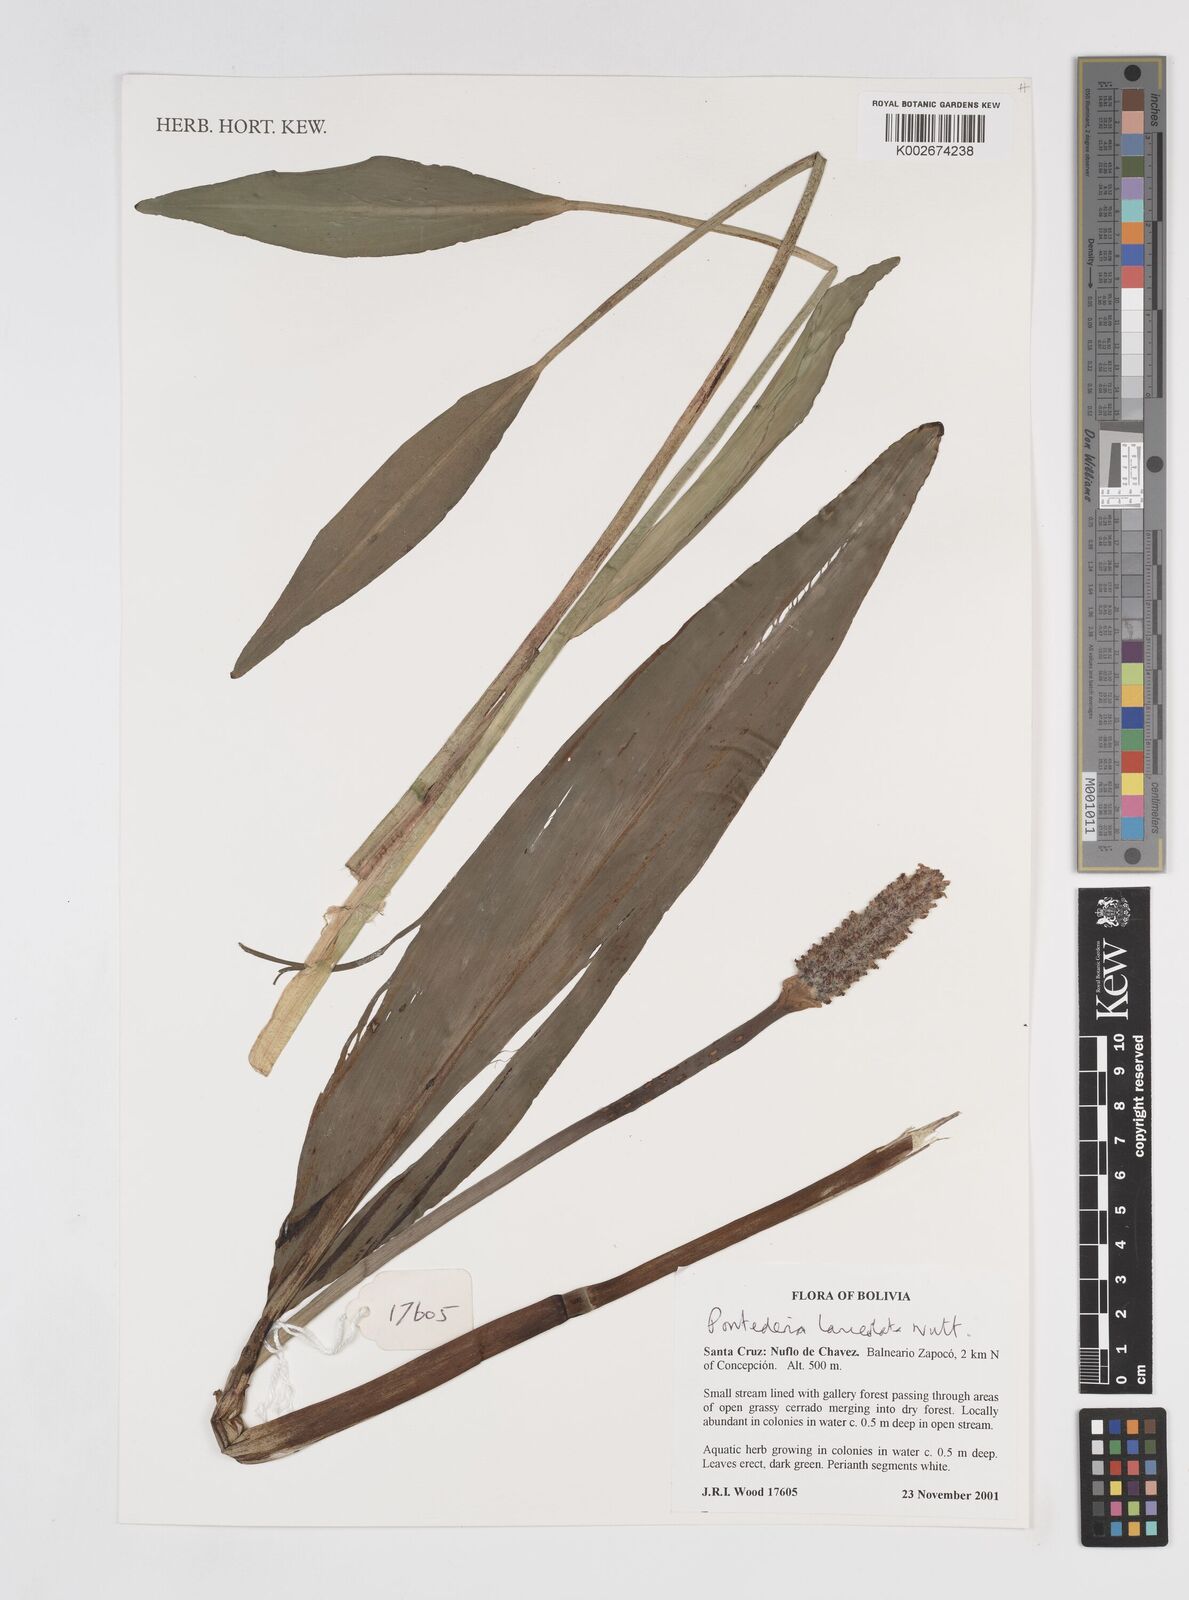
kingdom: Plantae
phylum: Tracheophyta
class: Liliopsida
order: Commelinales
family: Pontederiaceae
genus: Pontederia
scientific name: Pontederia
